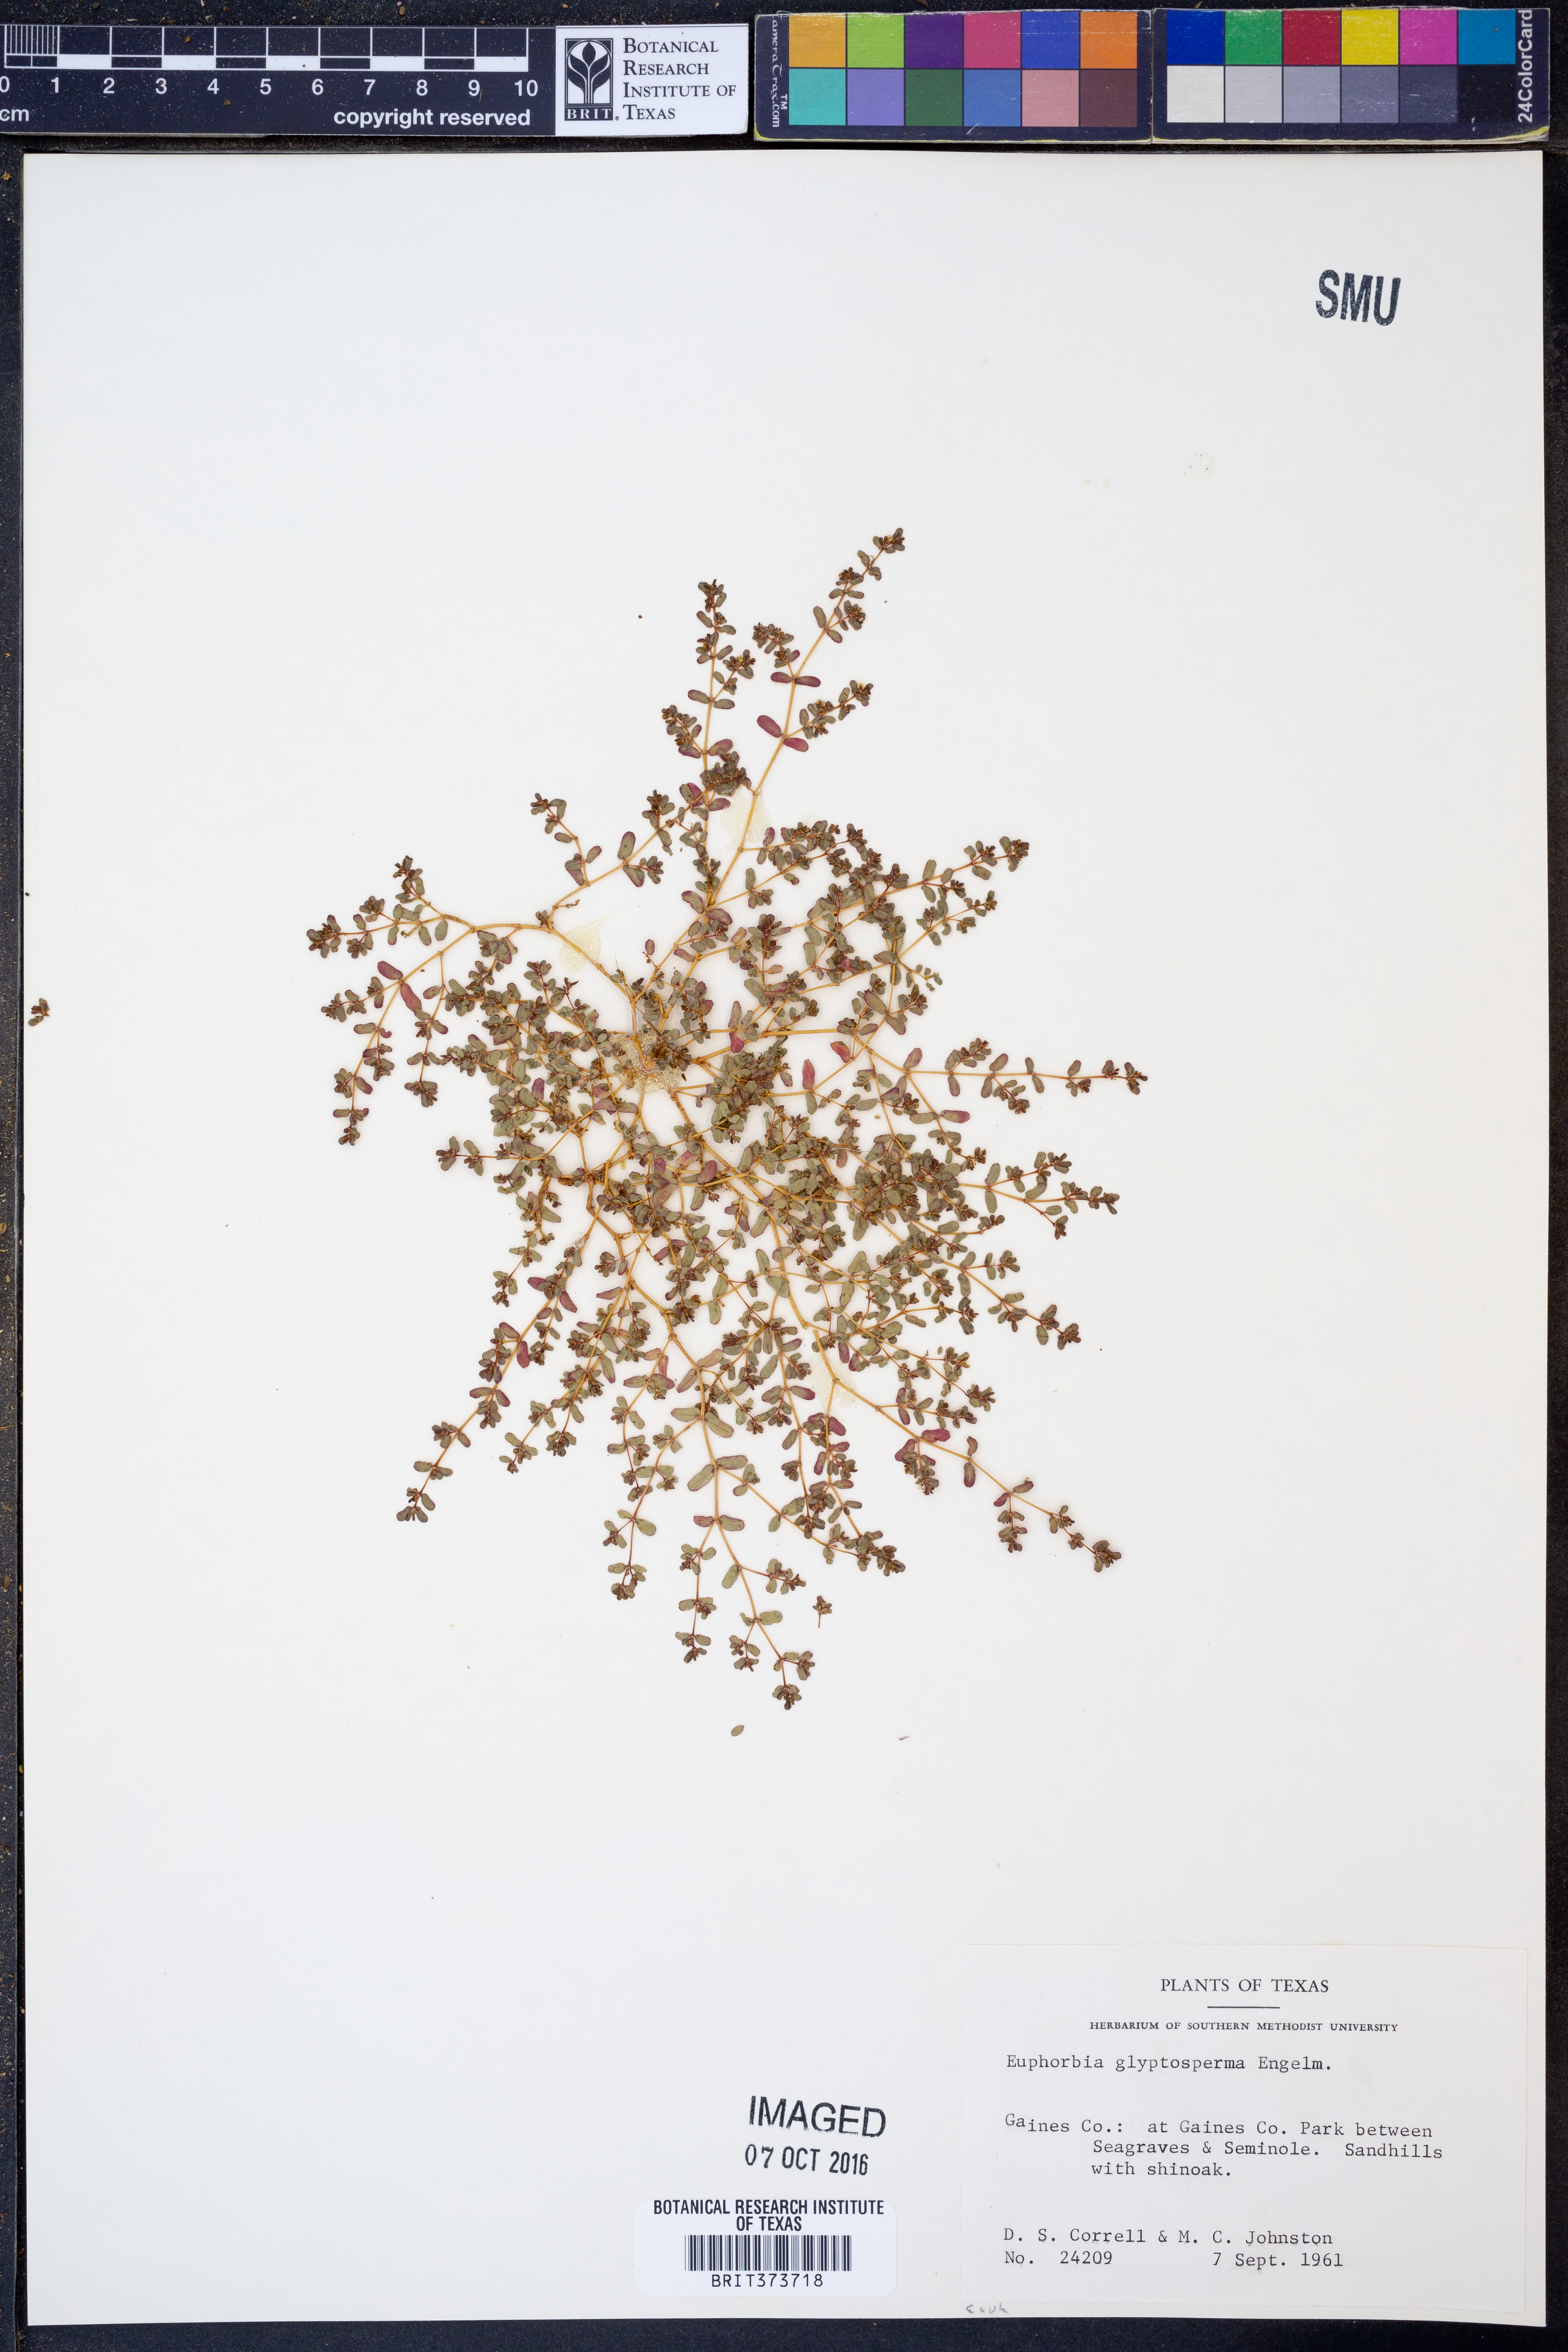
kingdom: Plantae
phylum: Tracheophyta
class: Magnoliopsida
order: Malpighiales
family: Euphorbiaceae
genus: Euphorbia
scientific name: Euphorbia glyptosperma
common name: Corrugate-seeded spurge
